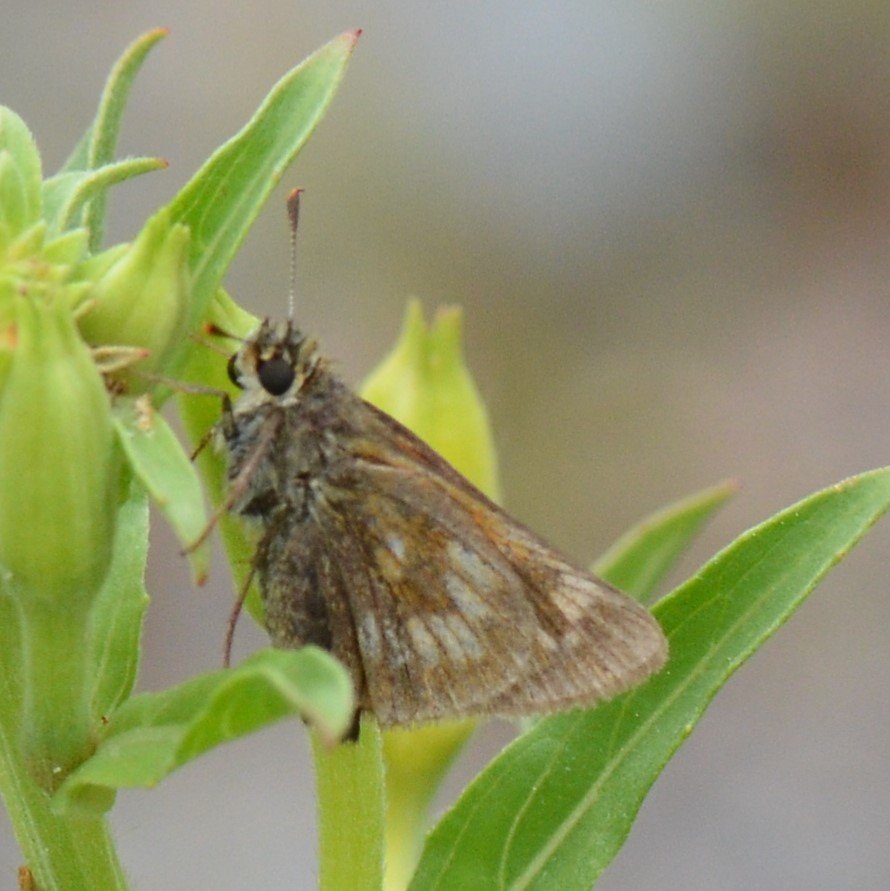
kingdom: Animalia
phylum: Arthropoda
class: Insecta
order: Lepidoptera
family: Hesperiidae
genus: Polites
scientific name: Polites
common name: Long Dash Skipper
